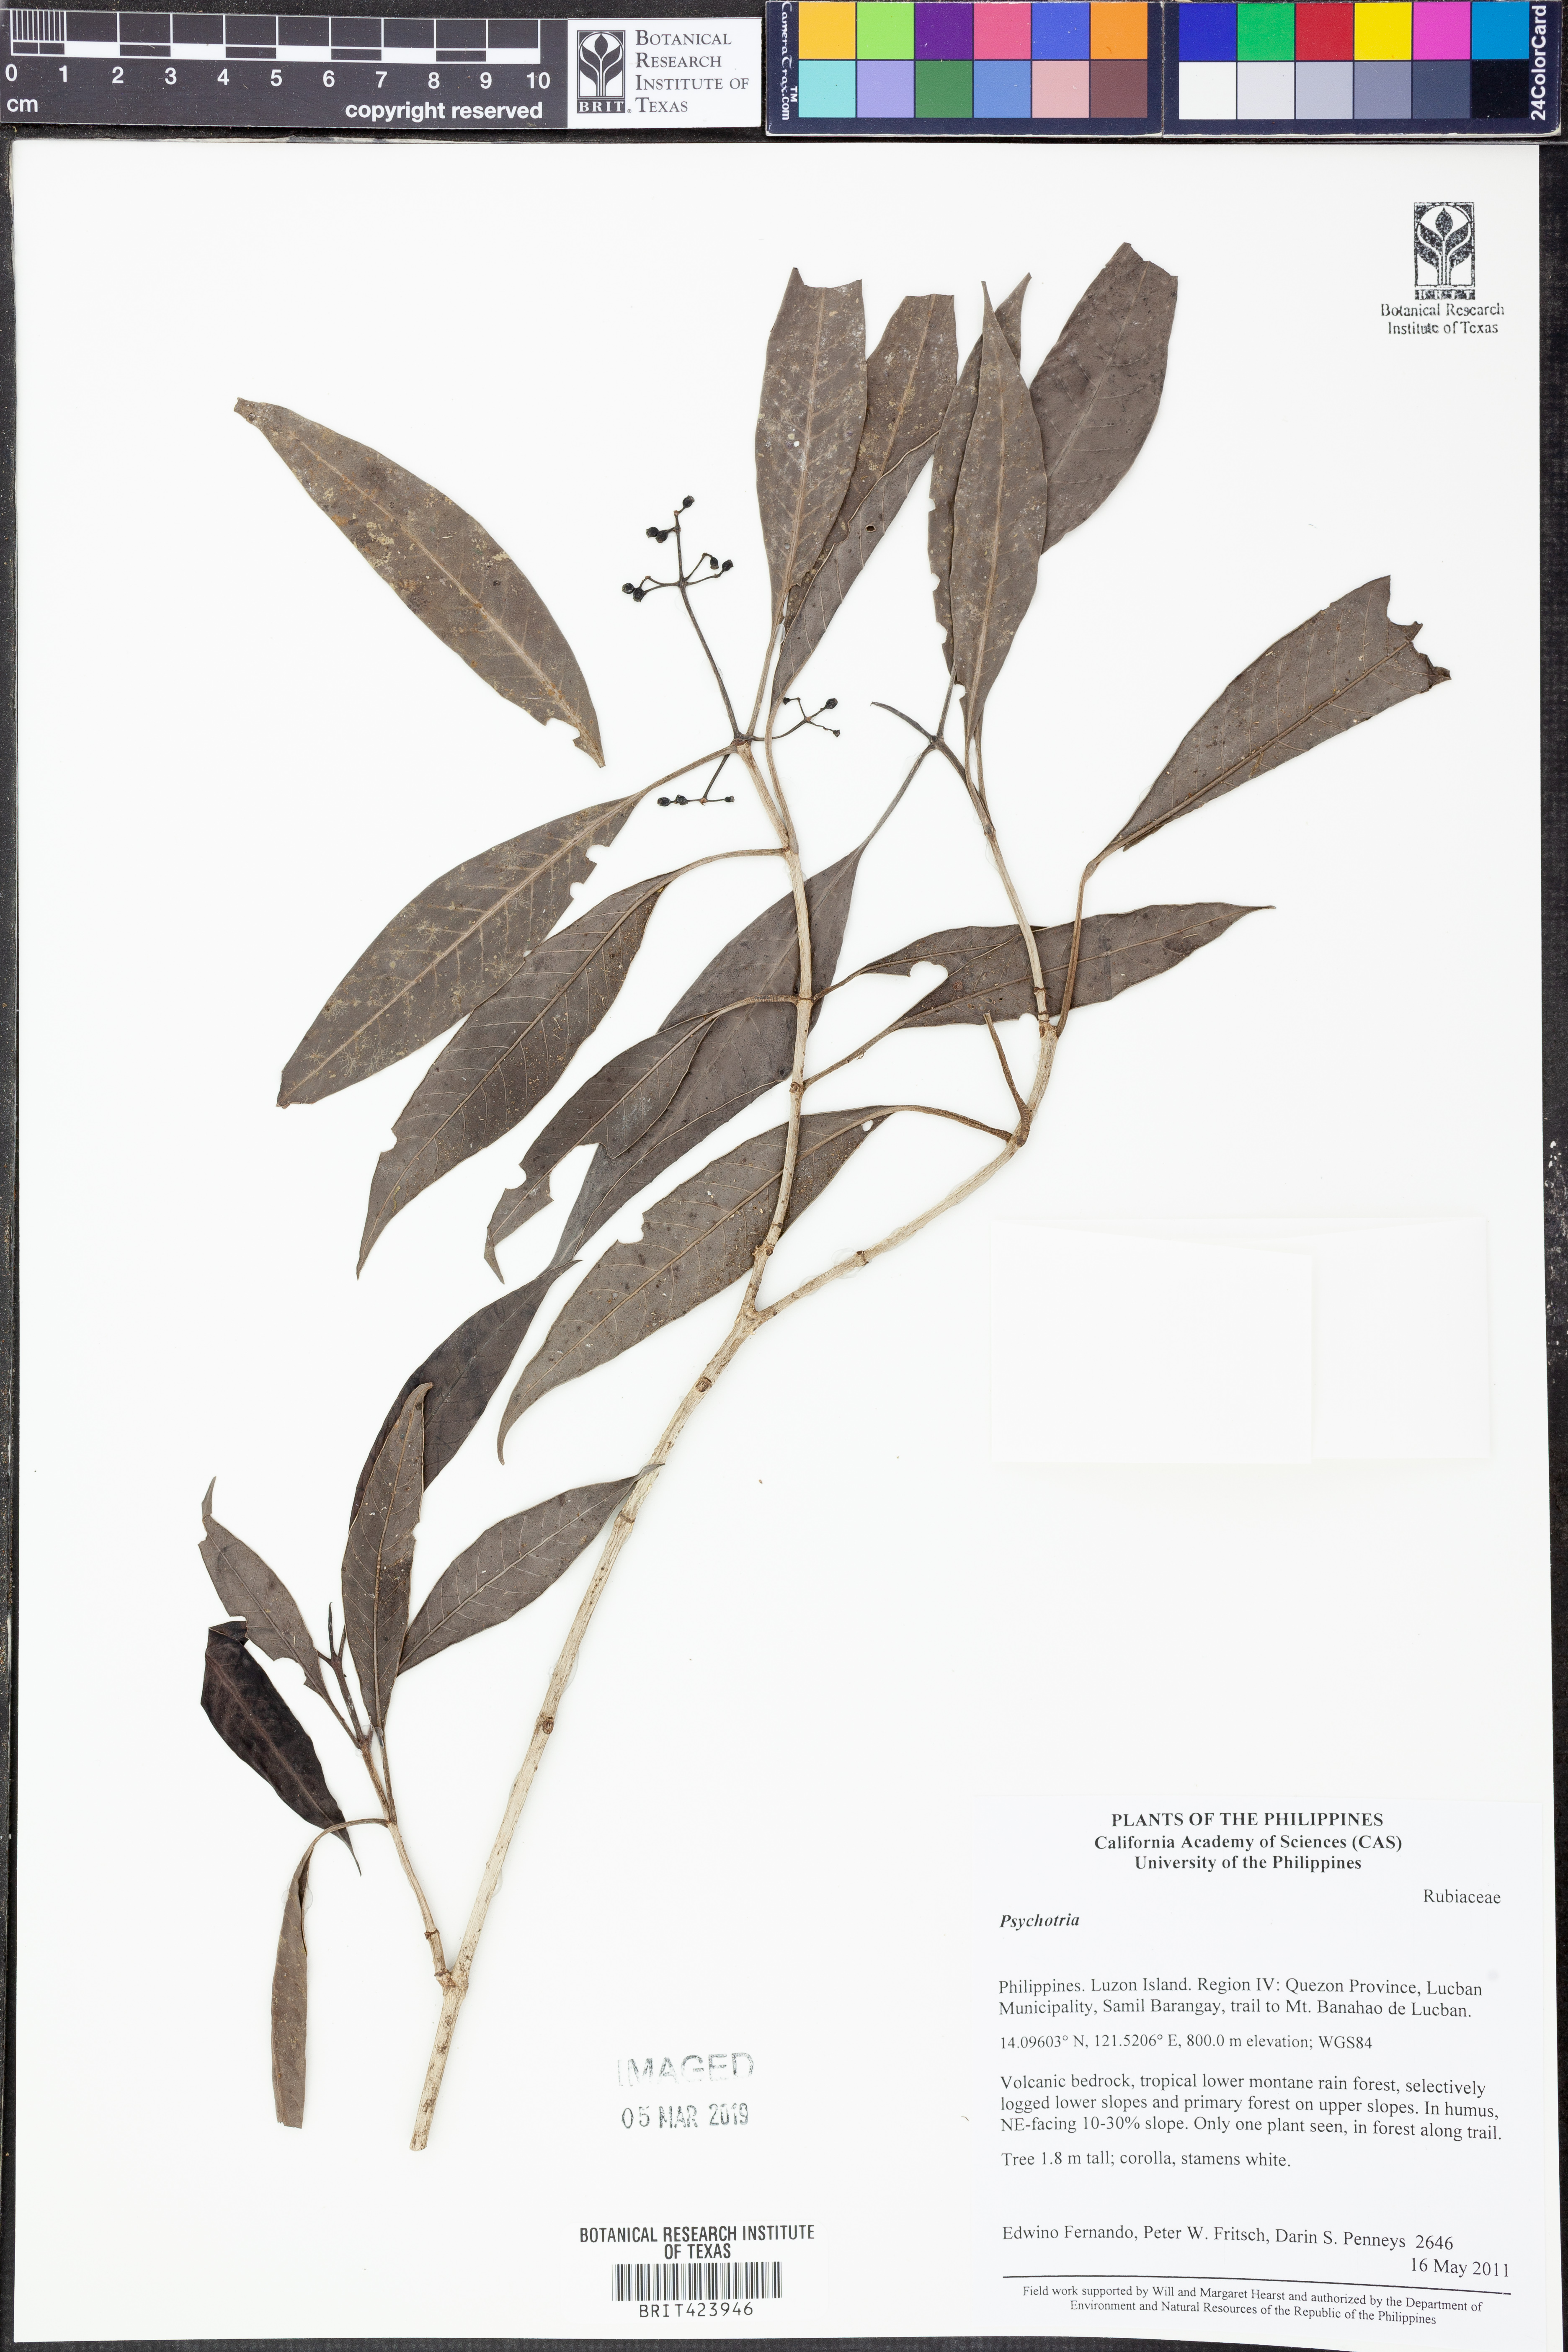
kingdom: Plantae
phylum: Tracheophyta
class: Magnoliopsida
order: Gentianales
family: Rubiaceae
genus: Psychotria
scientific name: Psychotria
